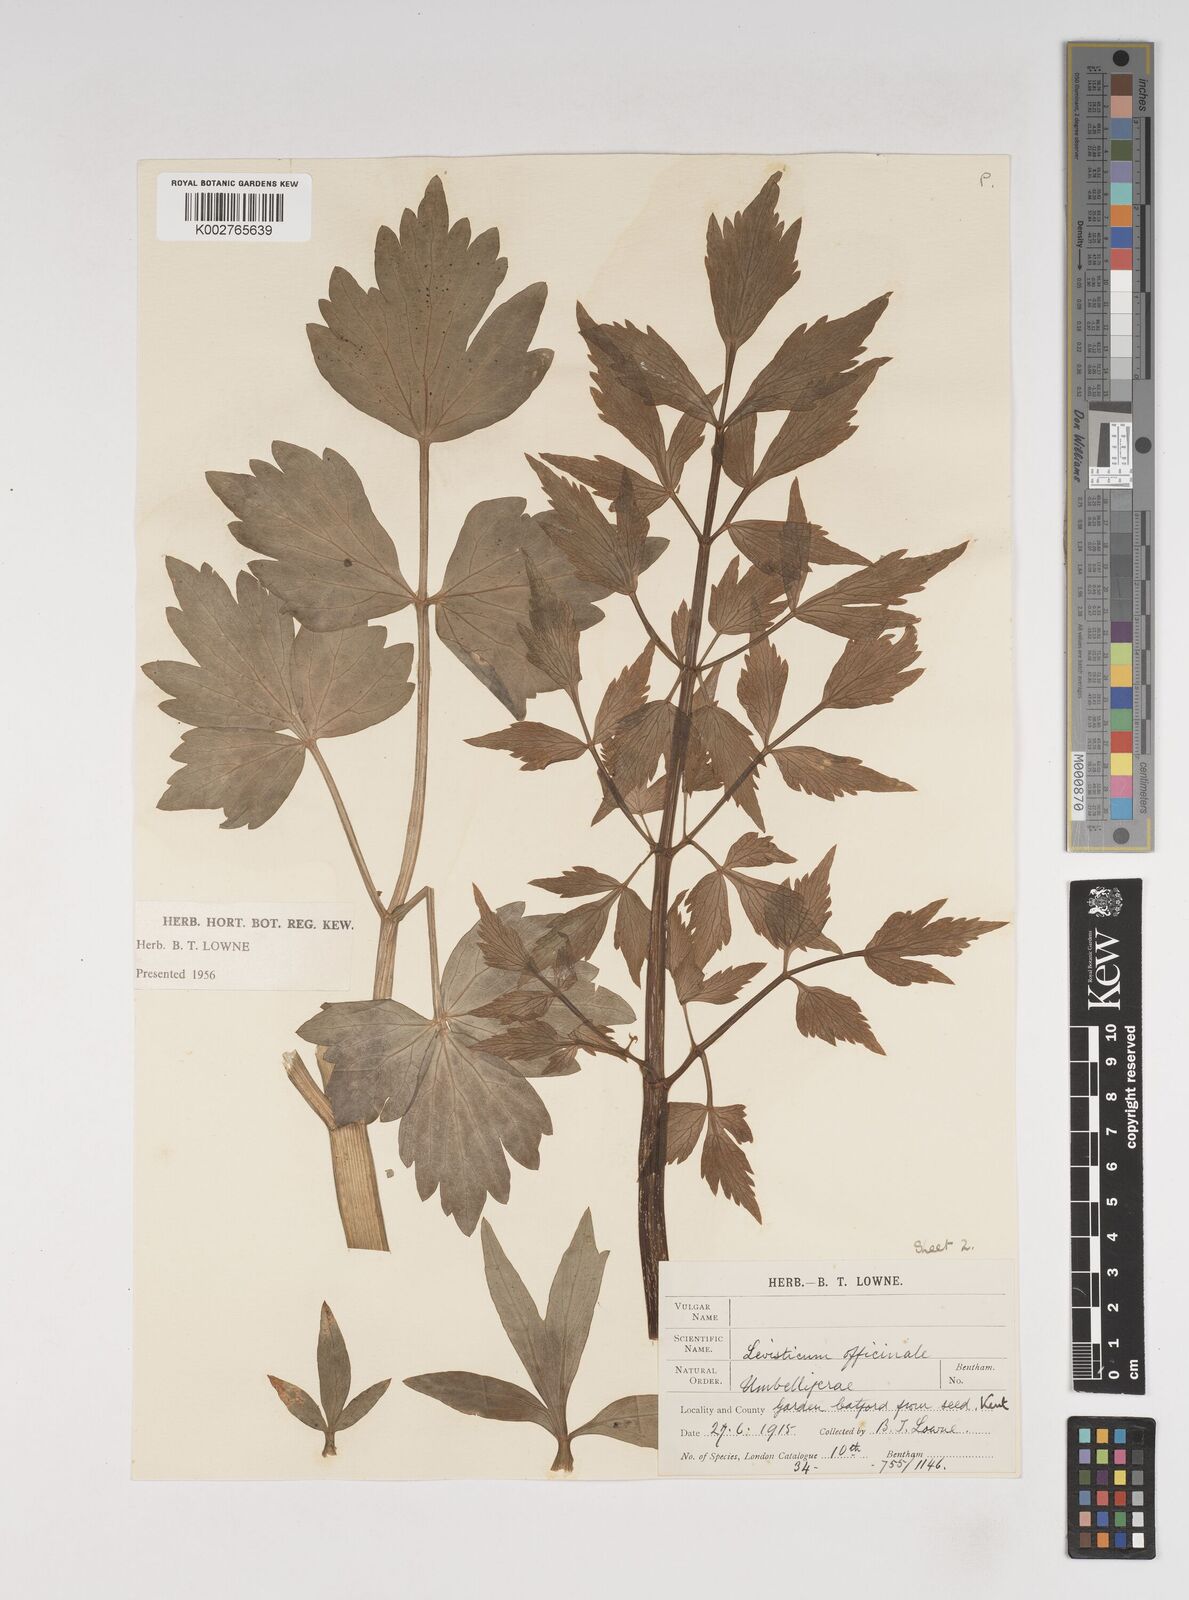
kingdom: Plantae
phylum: Tracheophyta
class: Magnoliopsida
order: Apiales
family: Apiaceae
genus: Levisticum
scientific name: Levisticum officinale
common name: Lovage
